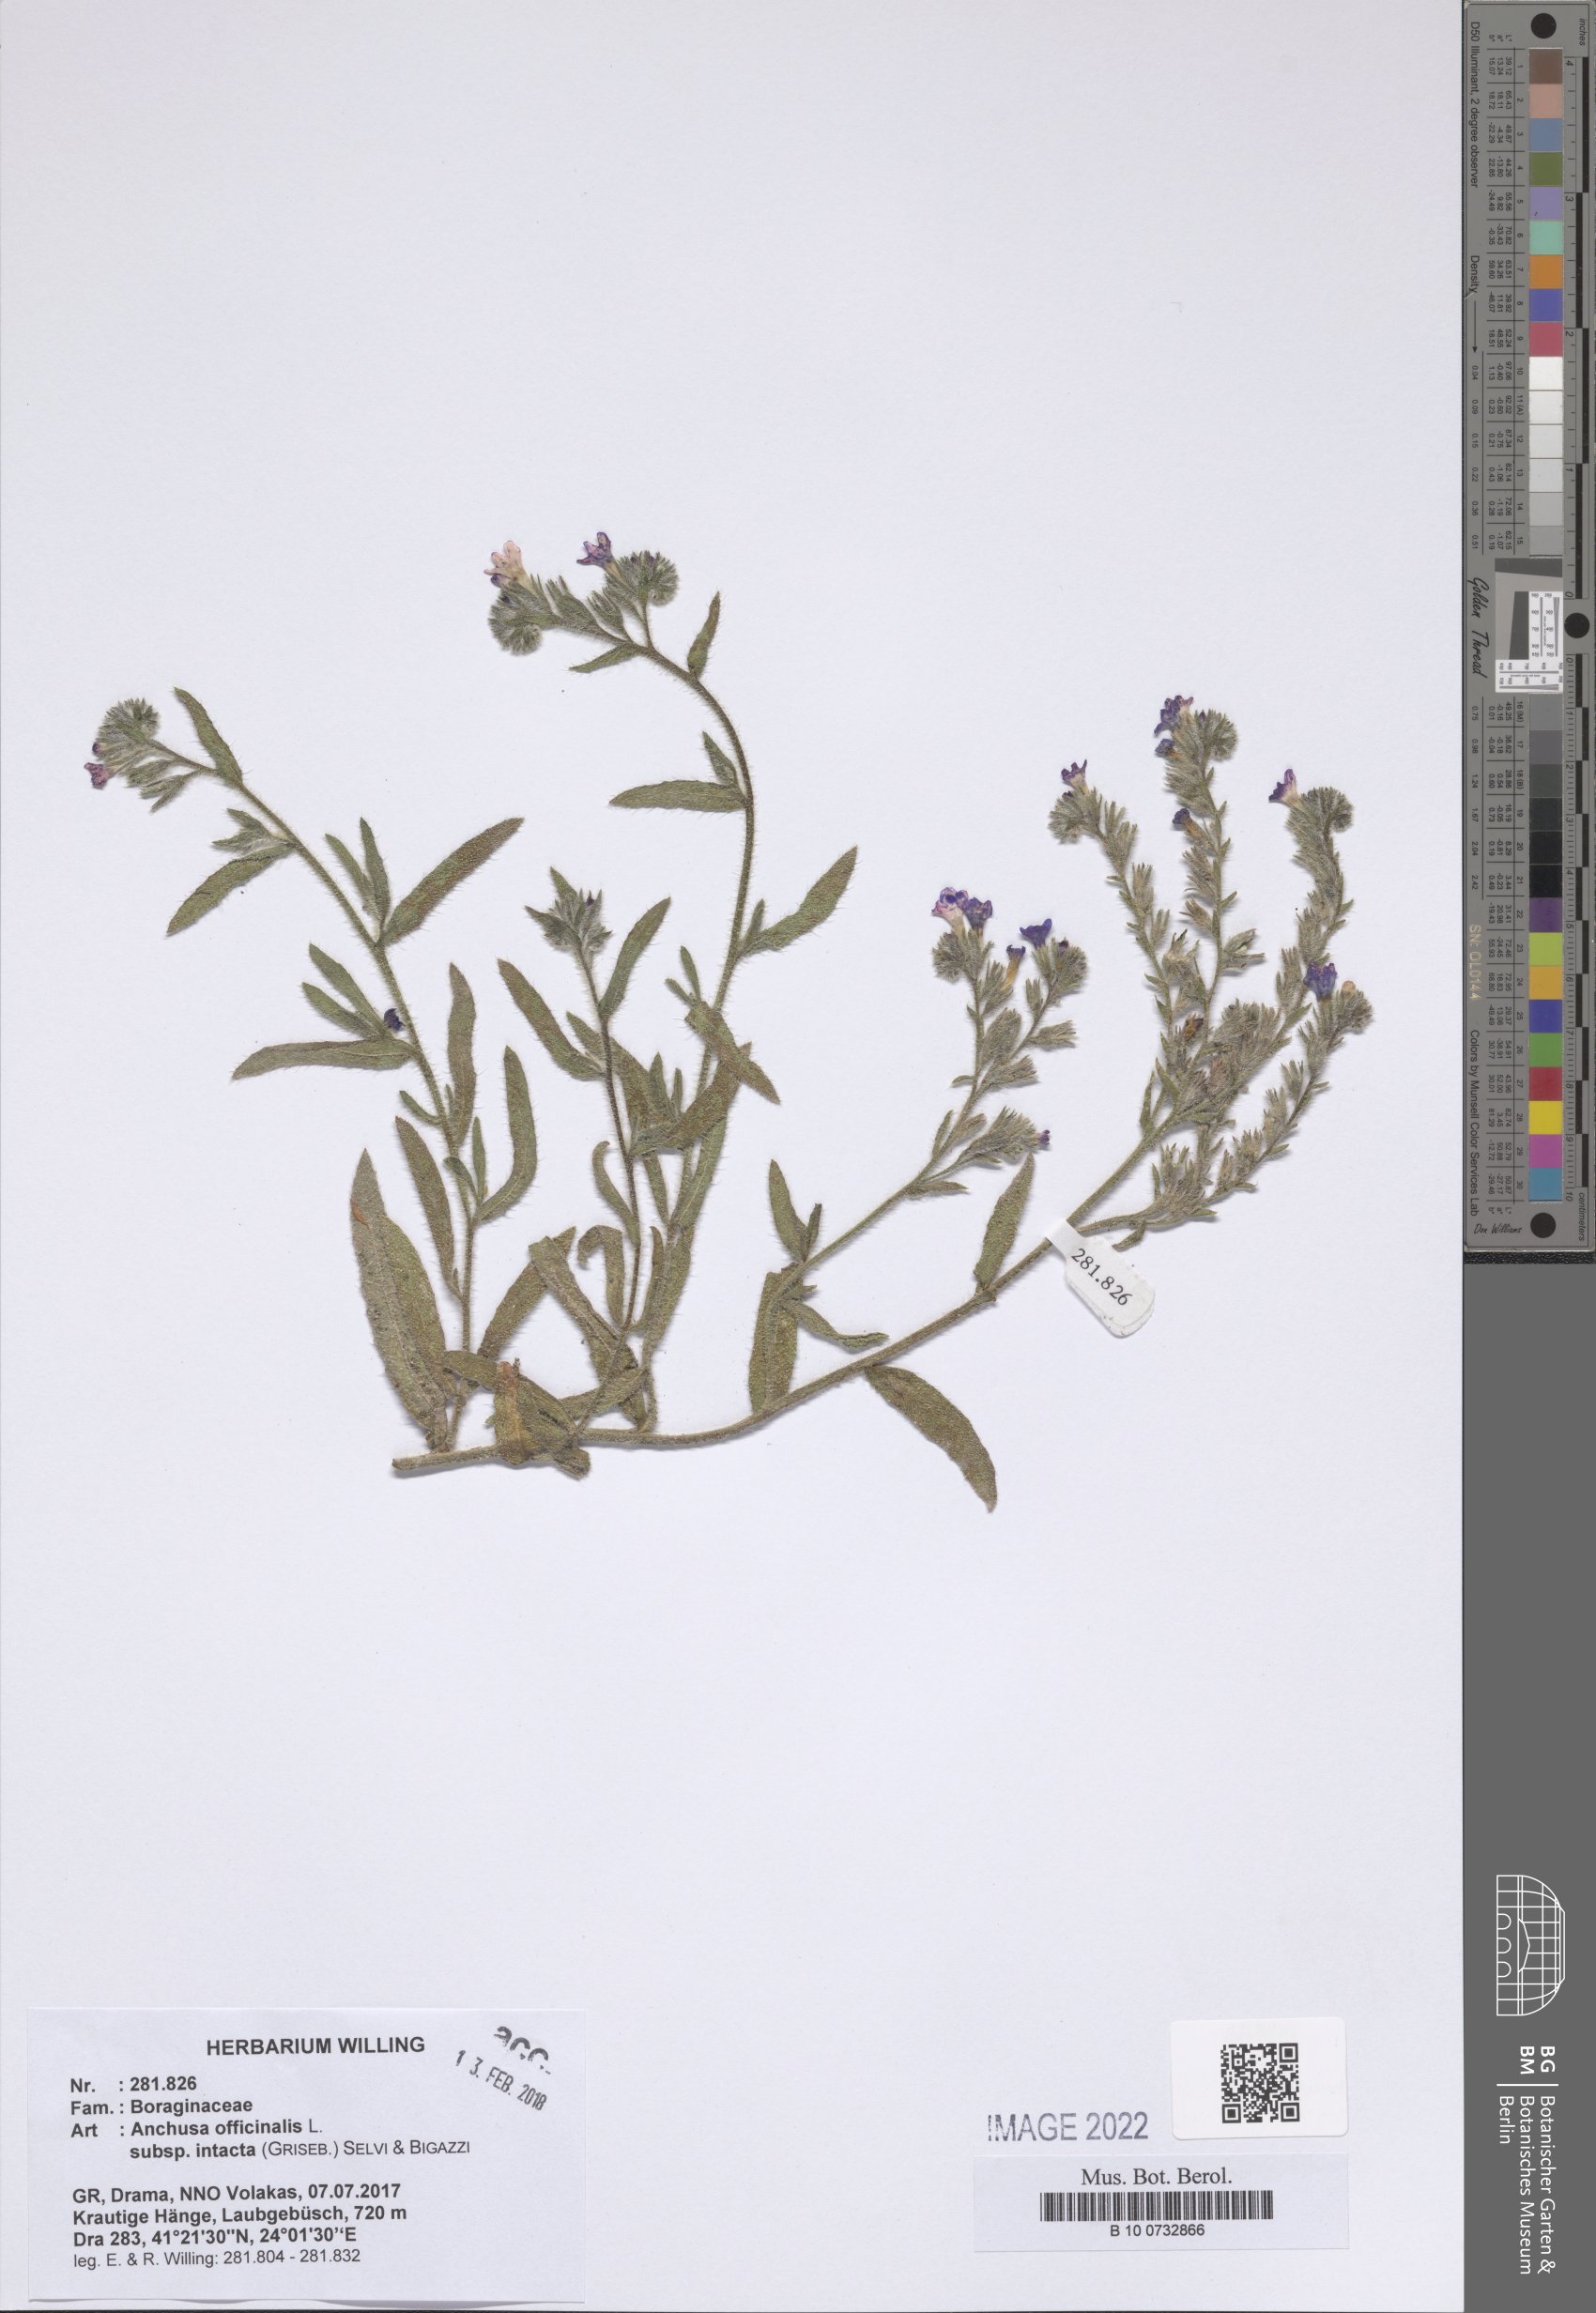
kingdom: Plantae
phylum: Tracheophyta
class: Magnoliopsida
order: Boraginales
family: Boraginaceae
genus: Anchusa
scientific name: Anchusa officinalis
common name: Alkanet
